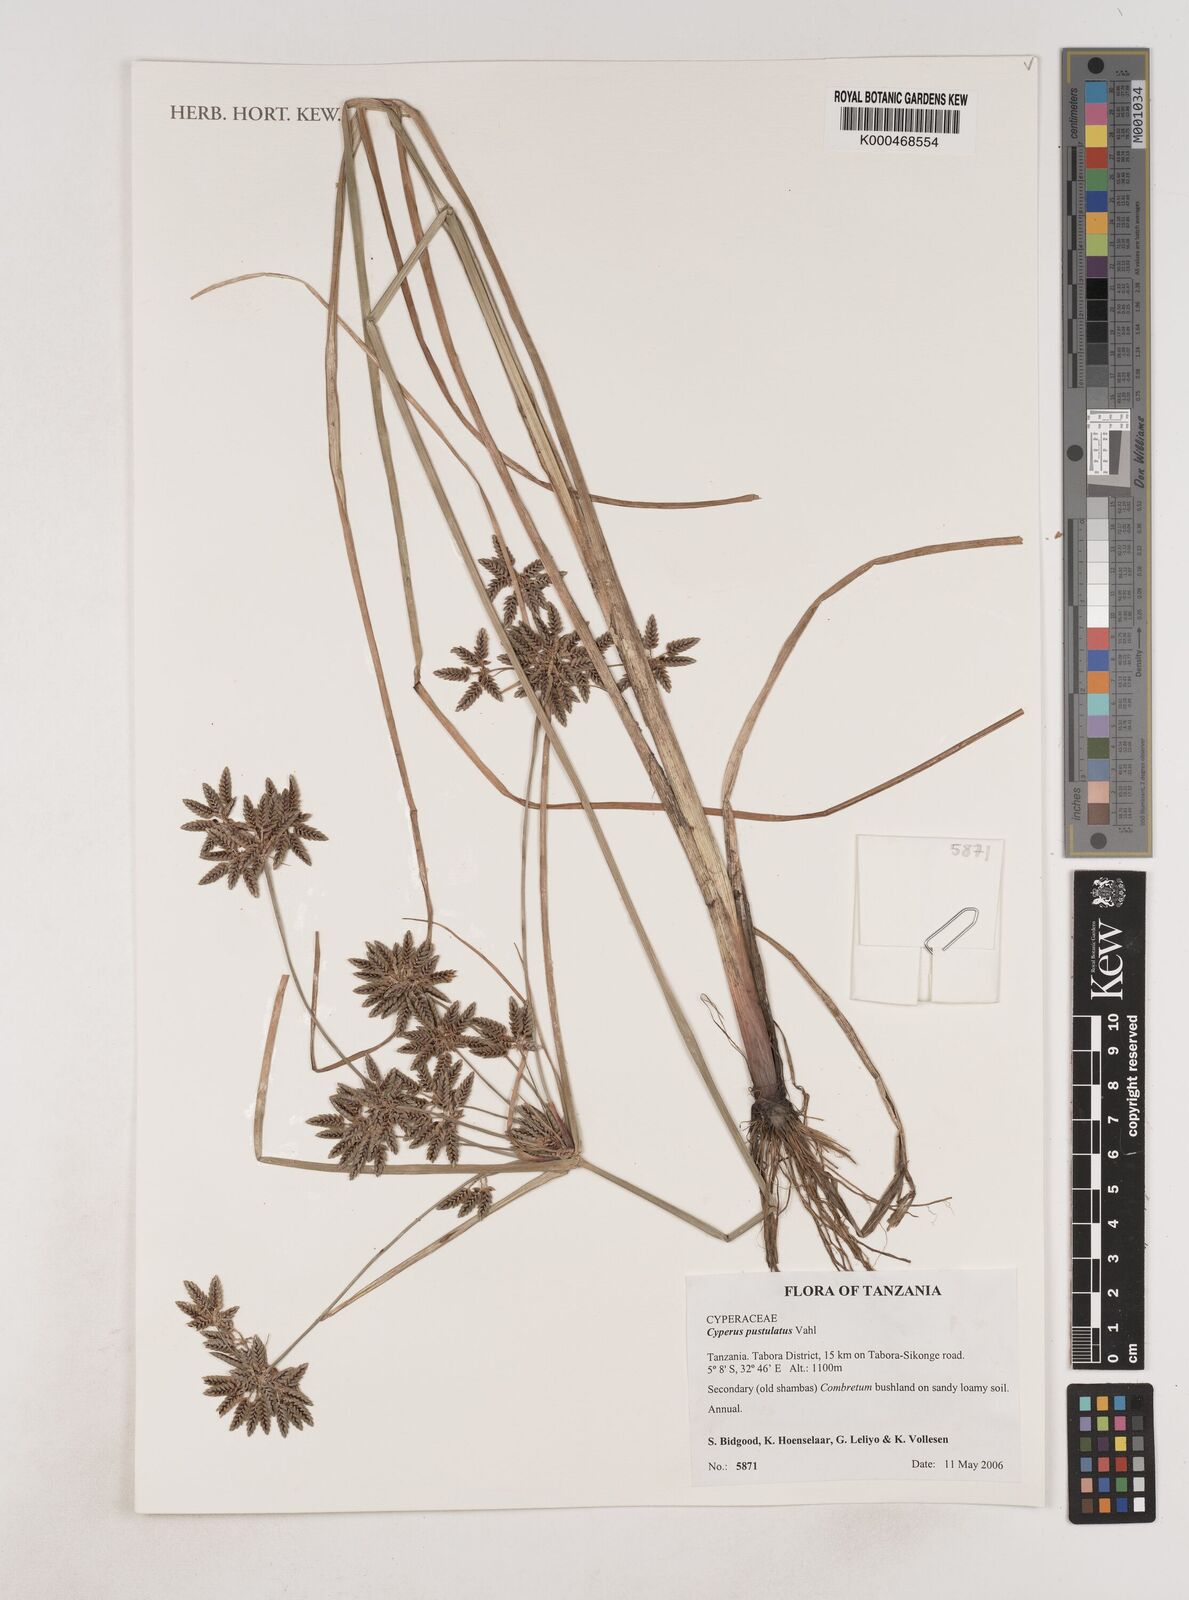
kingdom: Plantae
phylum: Tracheophyta
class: Liliopsida
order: Poales
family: Cyperaceae
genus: Cyperus
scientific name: Cyperus pustulatus
